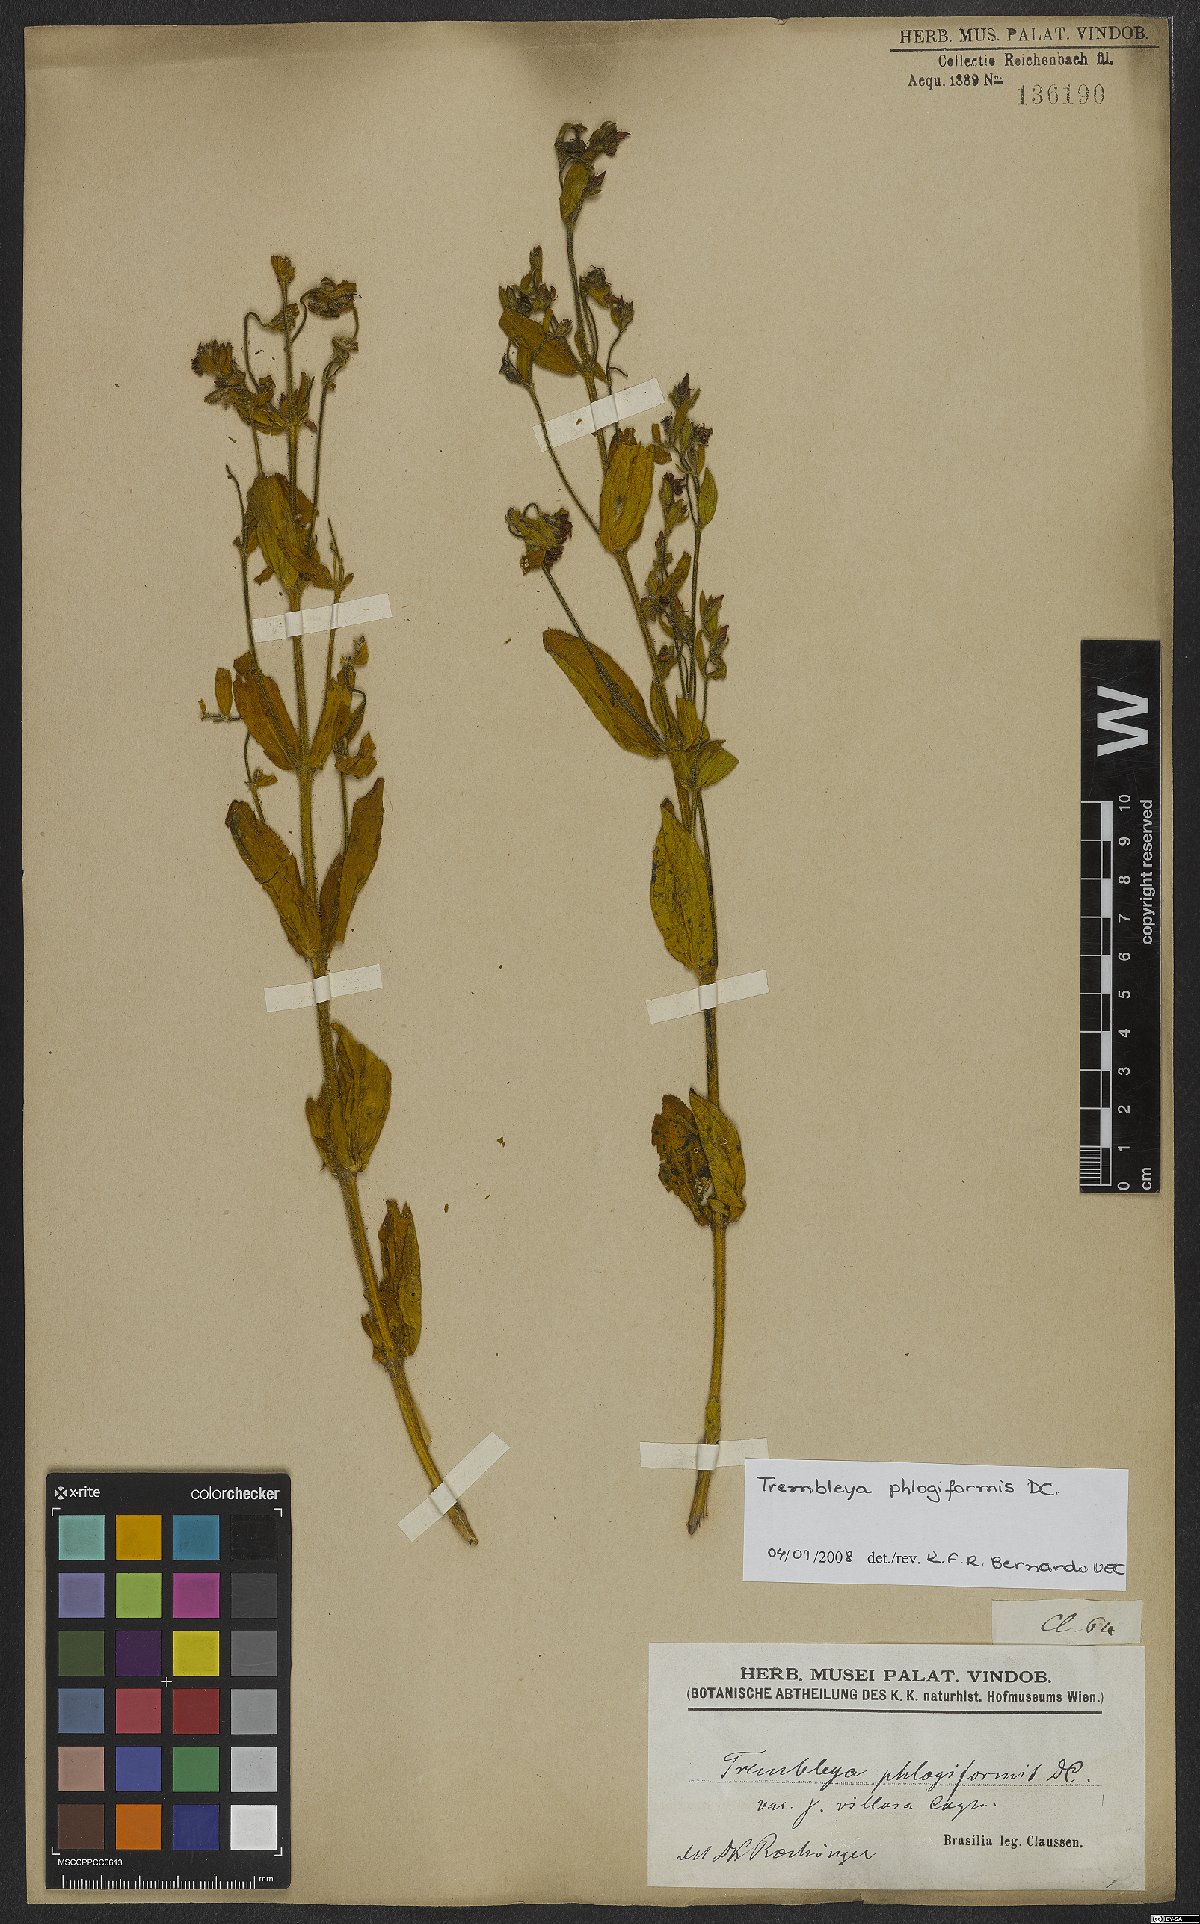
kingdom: Plantae
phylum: Tracheophyta
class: Magnoliopsida
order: Myrtales
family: Melastomataceae
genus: Microlicia
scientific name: Microlicia phlogiformis
